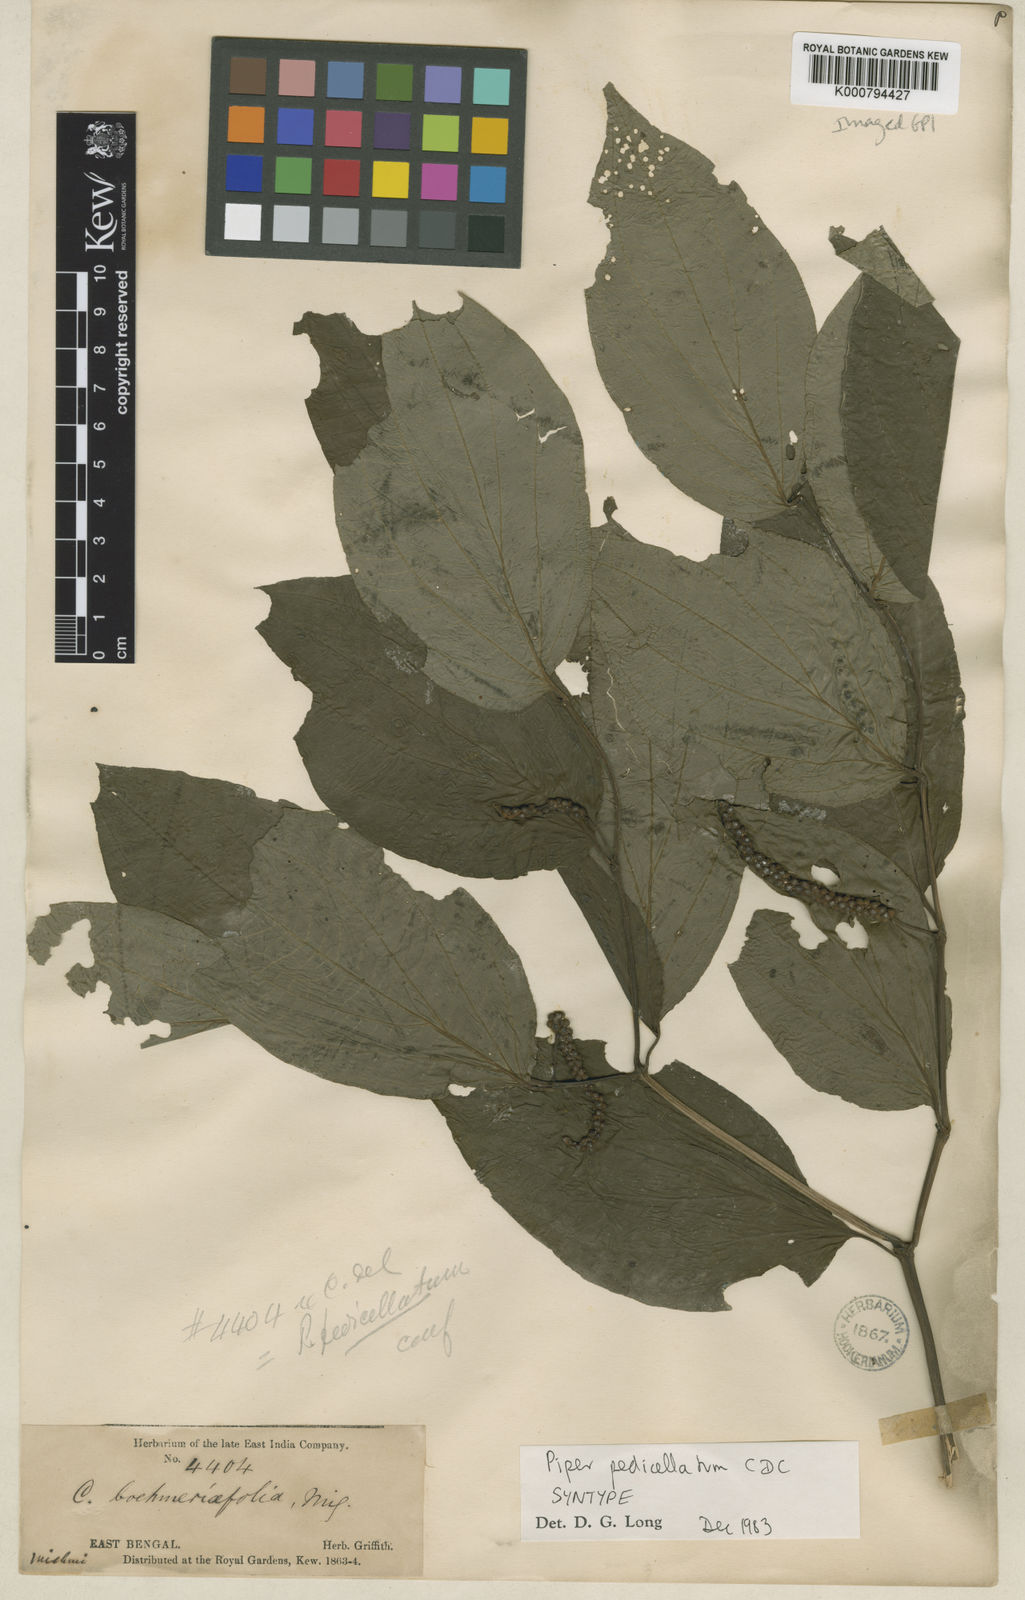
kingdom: Plantae
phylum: Tracheophyta
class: Magnoliopsida
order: Piperales
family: Piperaceae
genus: Piper
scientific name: Piper pedicellatum
